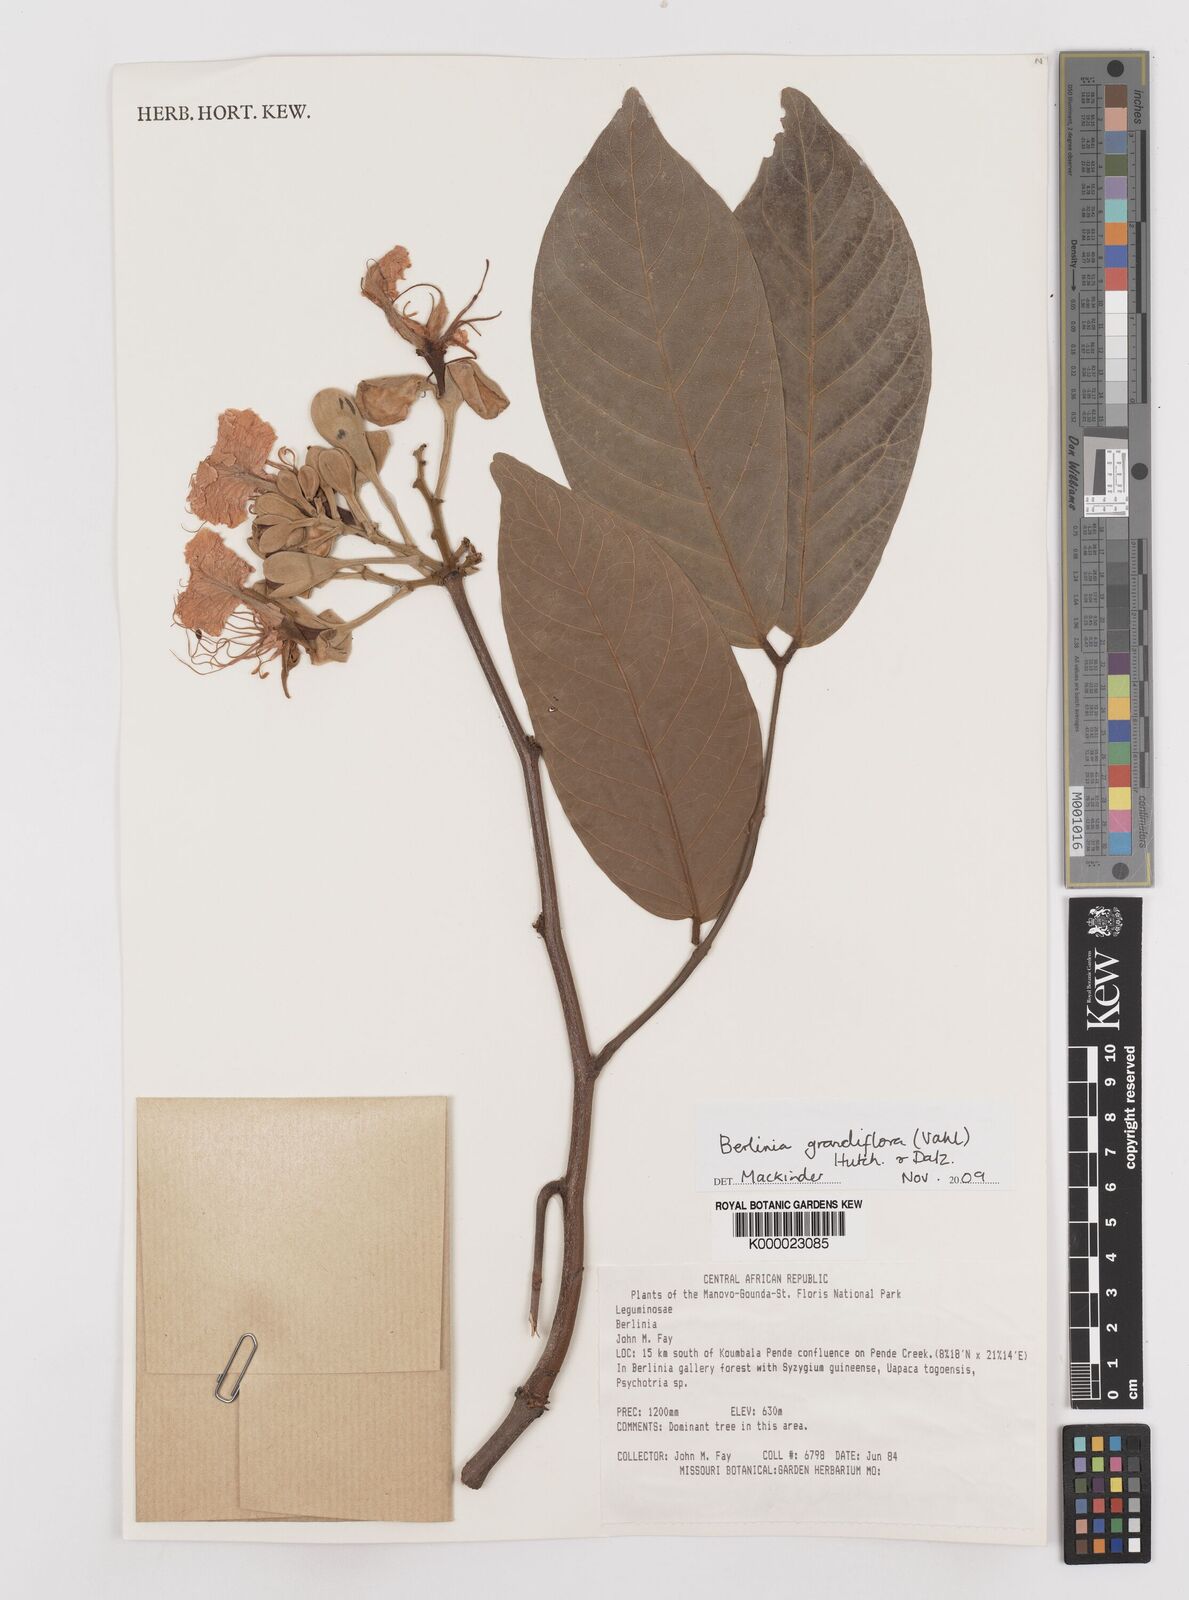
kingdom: Plantae
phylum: Tracheophyta
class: Magnoliopsida
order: Fabales
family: Fabaceae
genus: Berlinia
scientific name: Berlinia grandiflora
